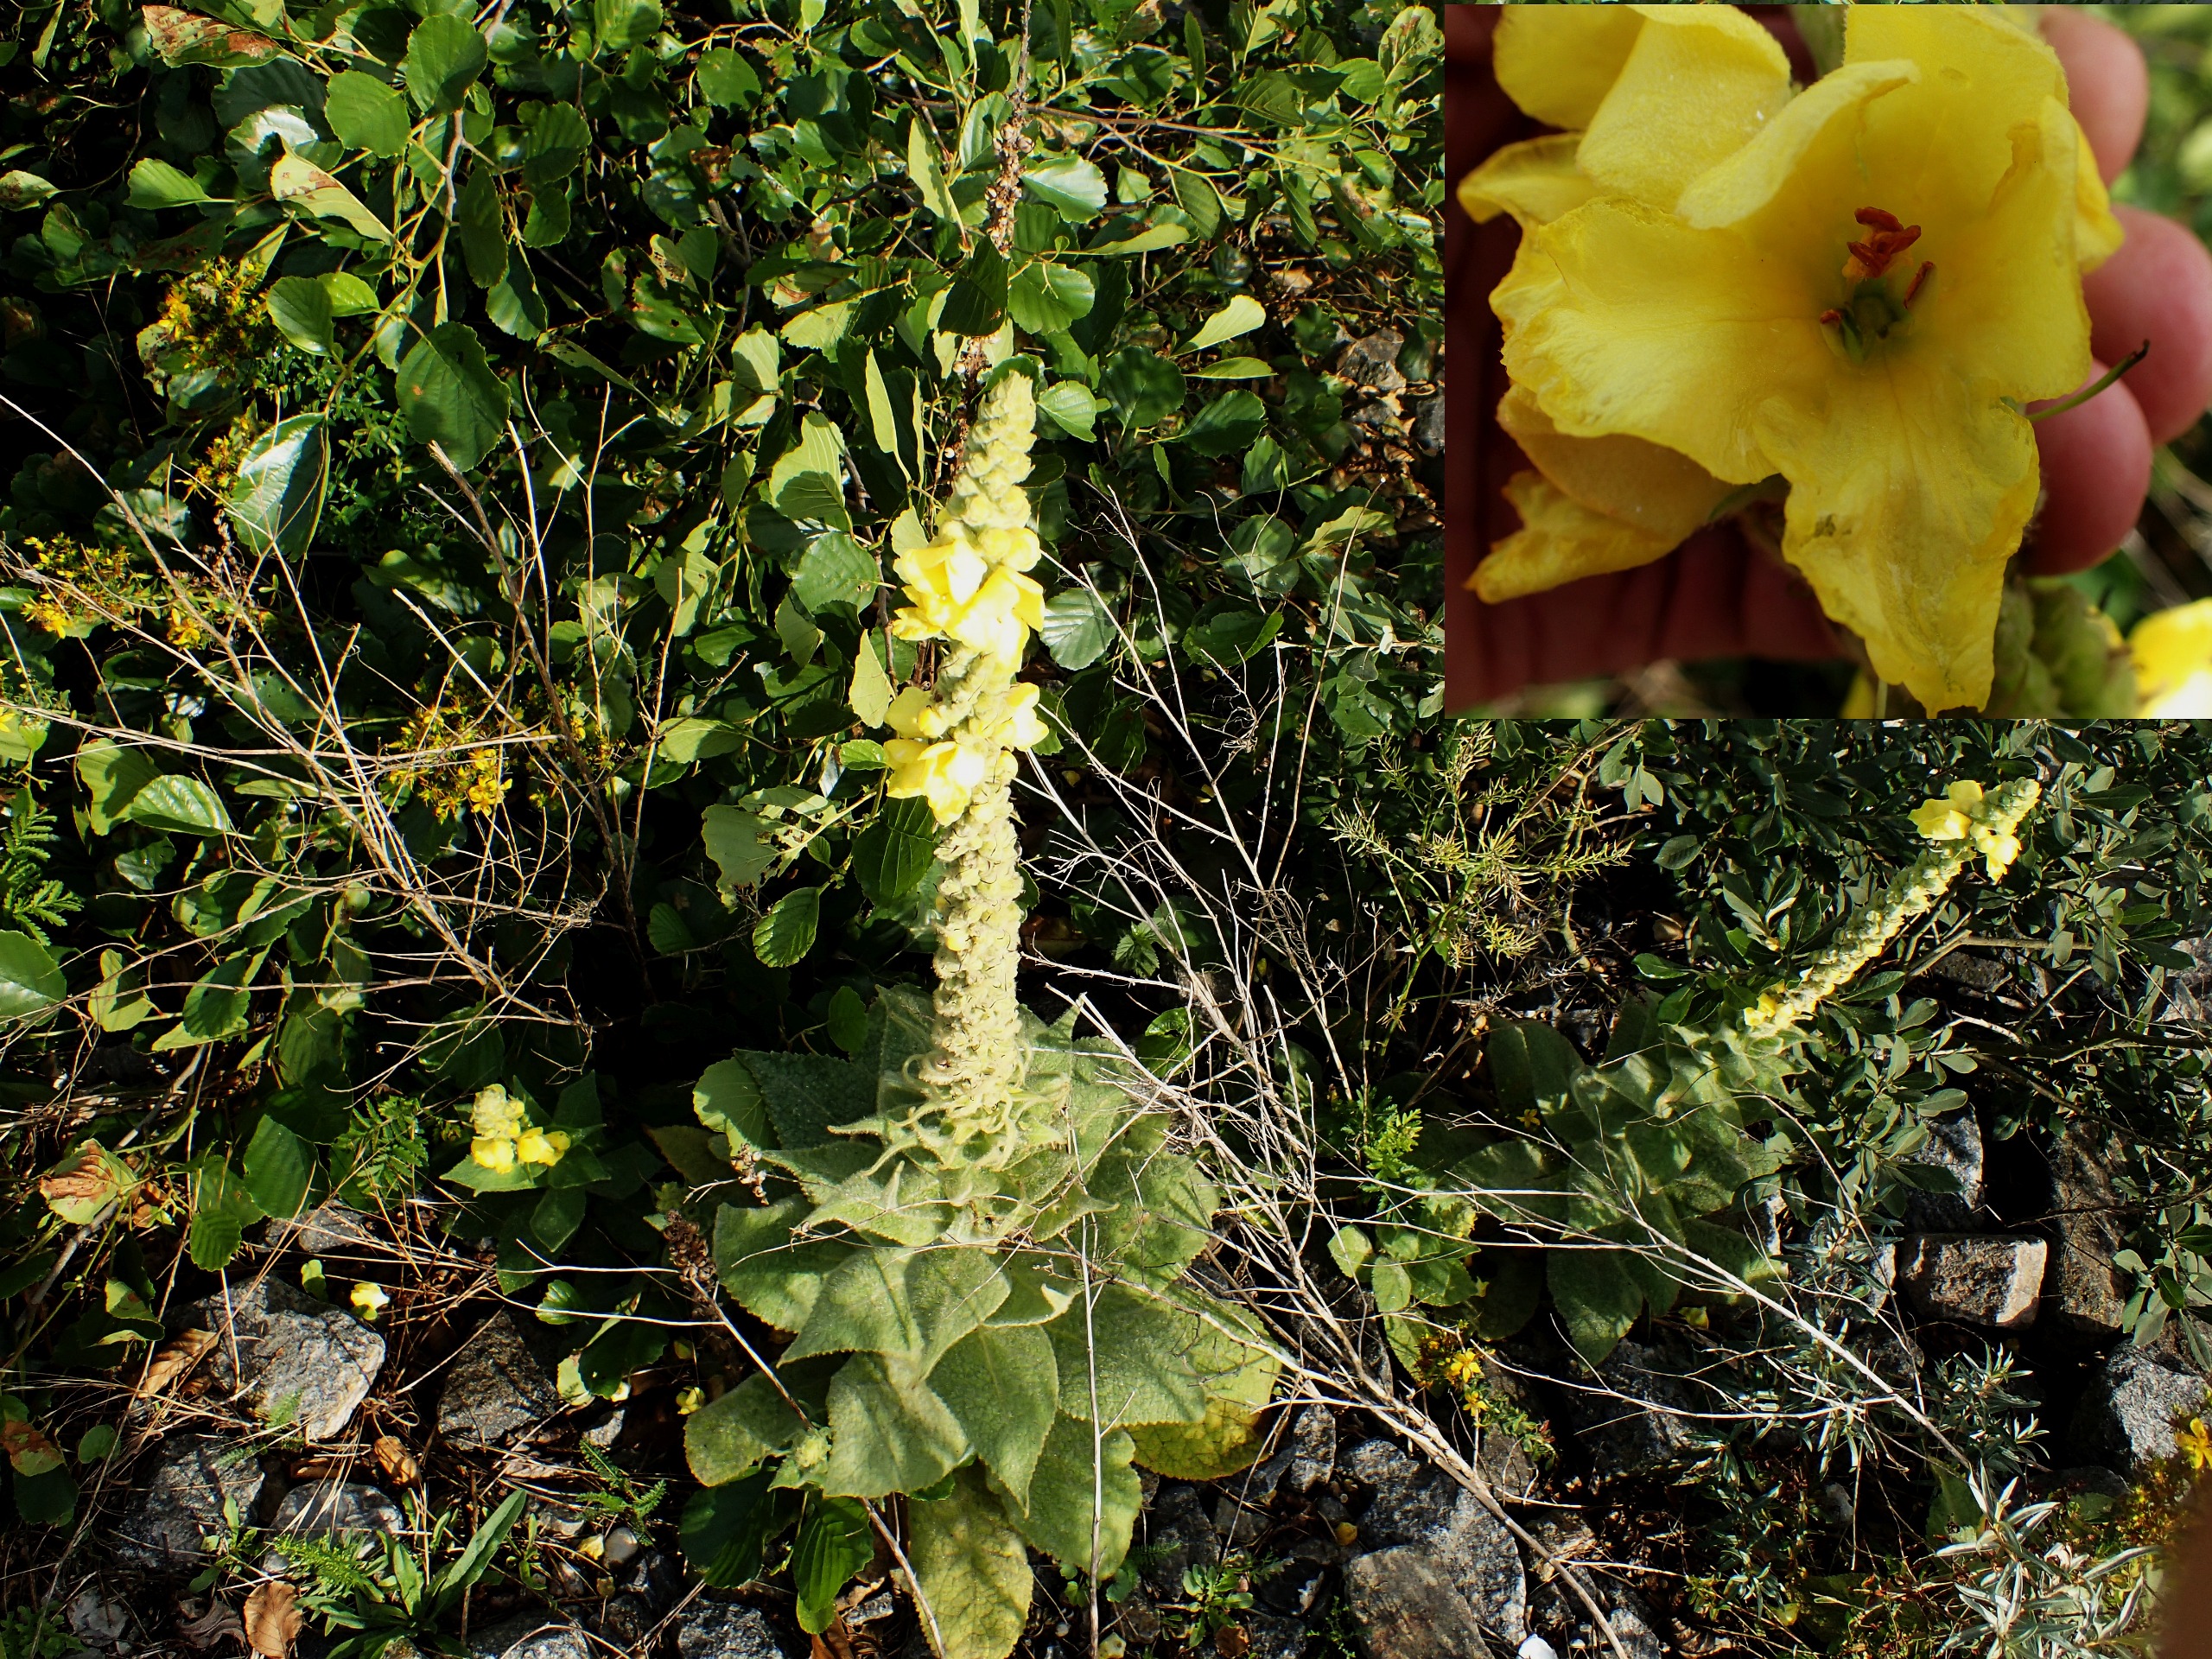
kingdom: Plantae
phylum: Tracheophyta
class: Magnoliopsida
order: Lamiales
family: Scrophulariaceae
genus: Verbascum
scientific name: Verbascum densiflorum
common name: Uldbladet kongelys
